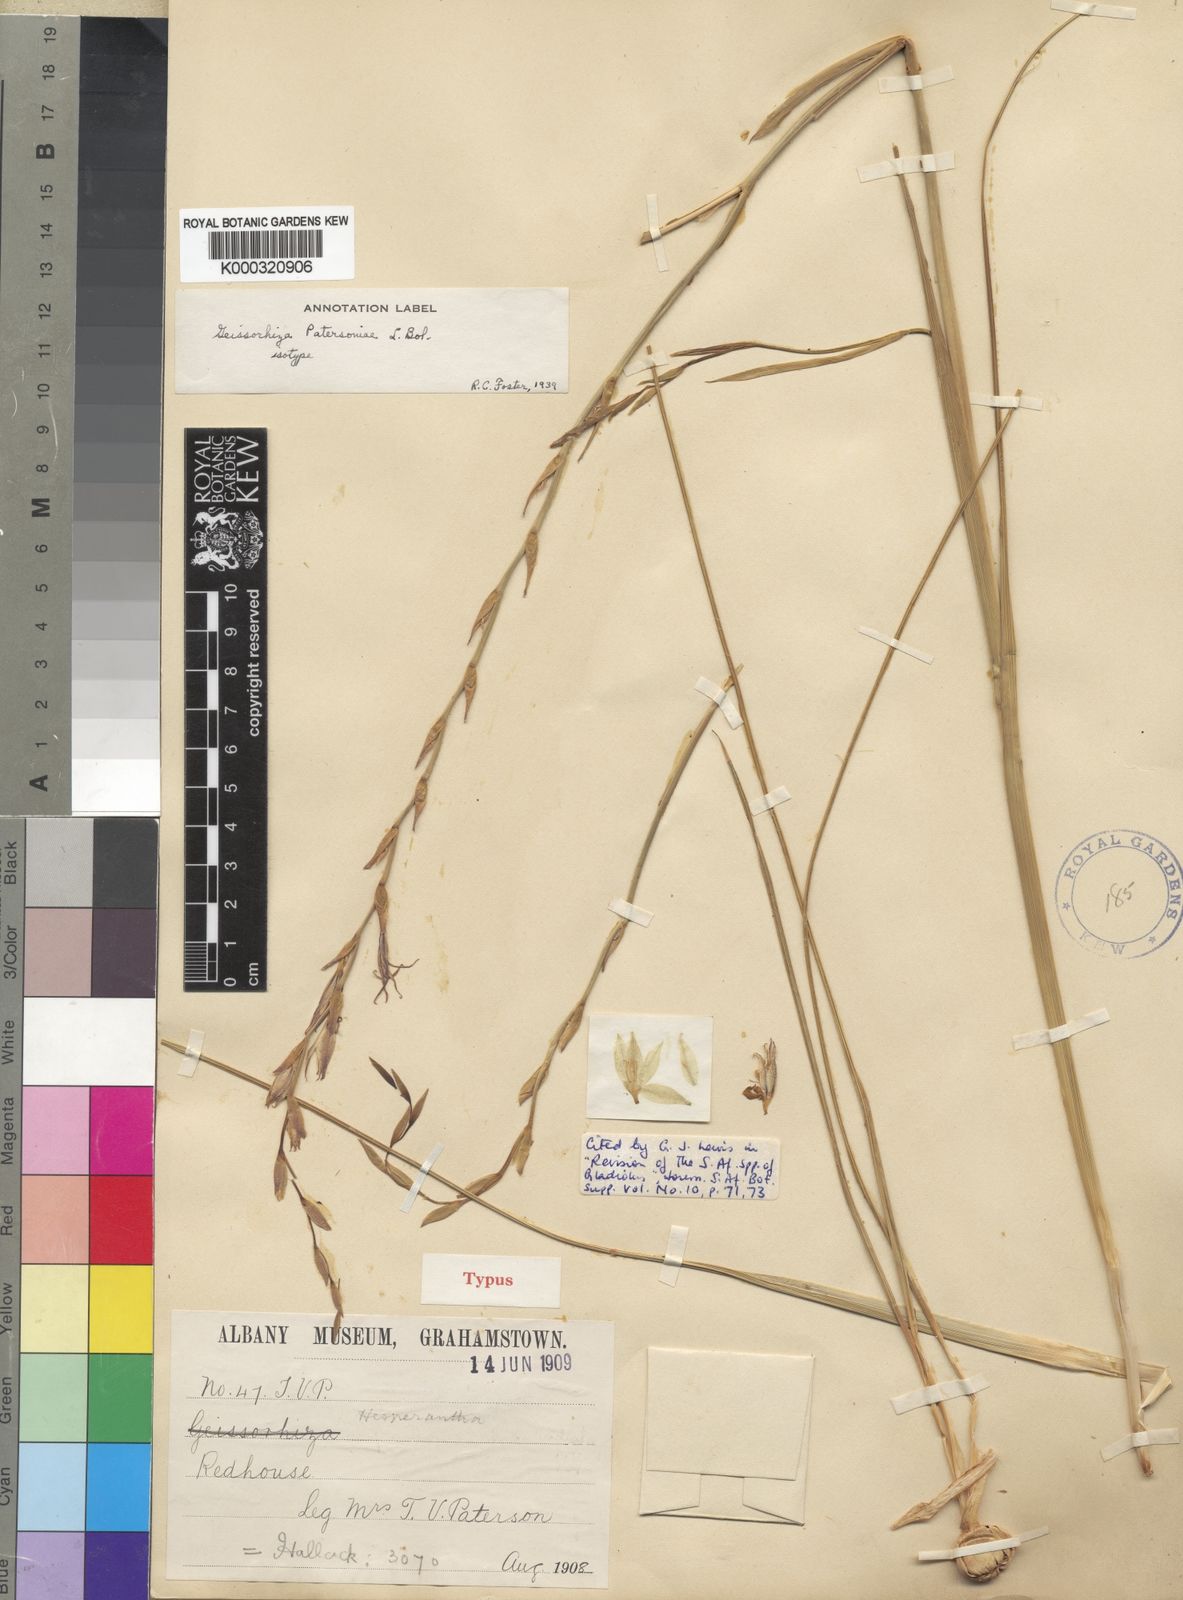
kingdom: Plantae
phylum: Tracheophyta
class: Liliopsida
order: Asparagales
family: Iridaceae
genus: Gladiolus
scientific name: Gladiolus stellatus
